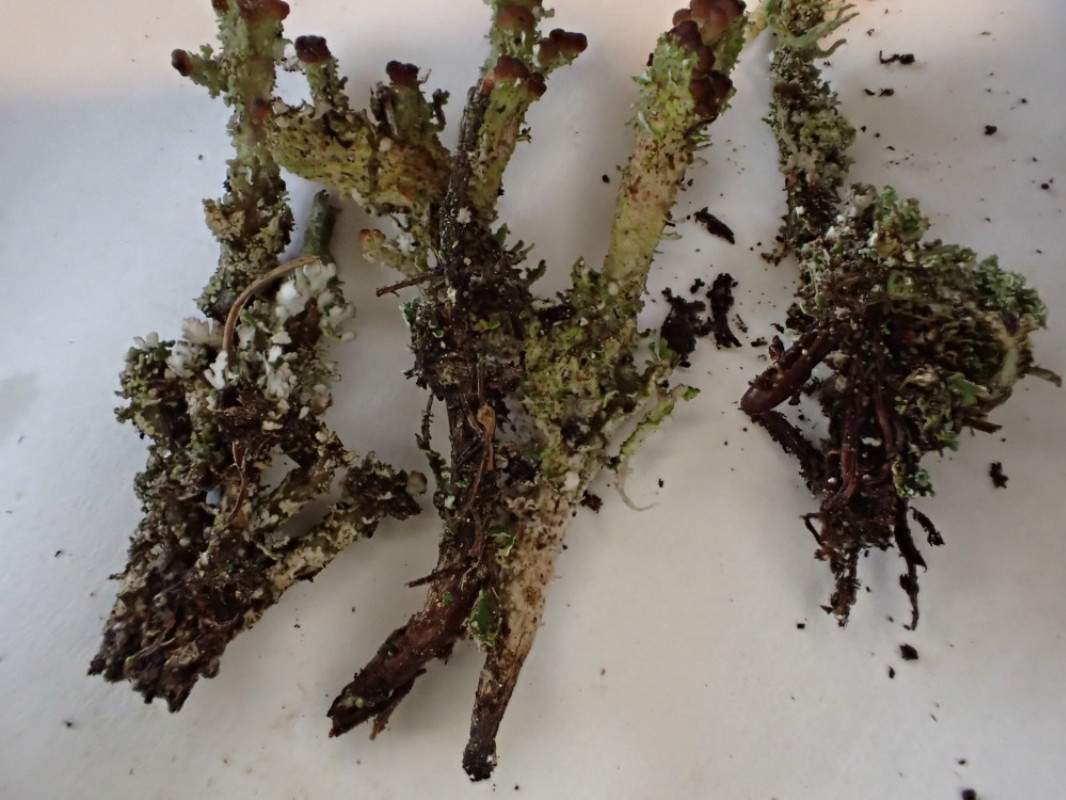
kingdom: Fungi
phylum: Ascomycota
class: Lecanoromycetes
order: Lecanorales
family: Cladoniaceae
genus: Cladonia
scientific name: Cladonia phyllophora
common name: sortfodet bægerlav
